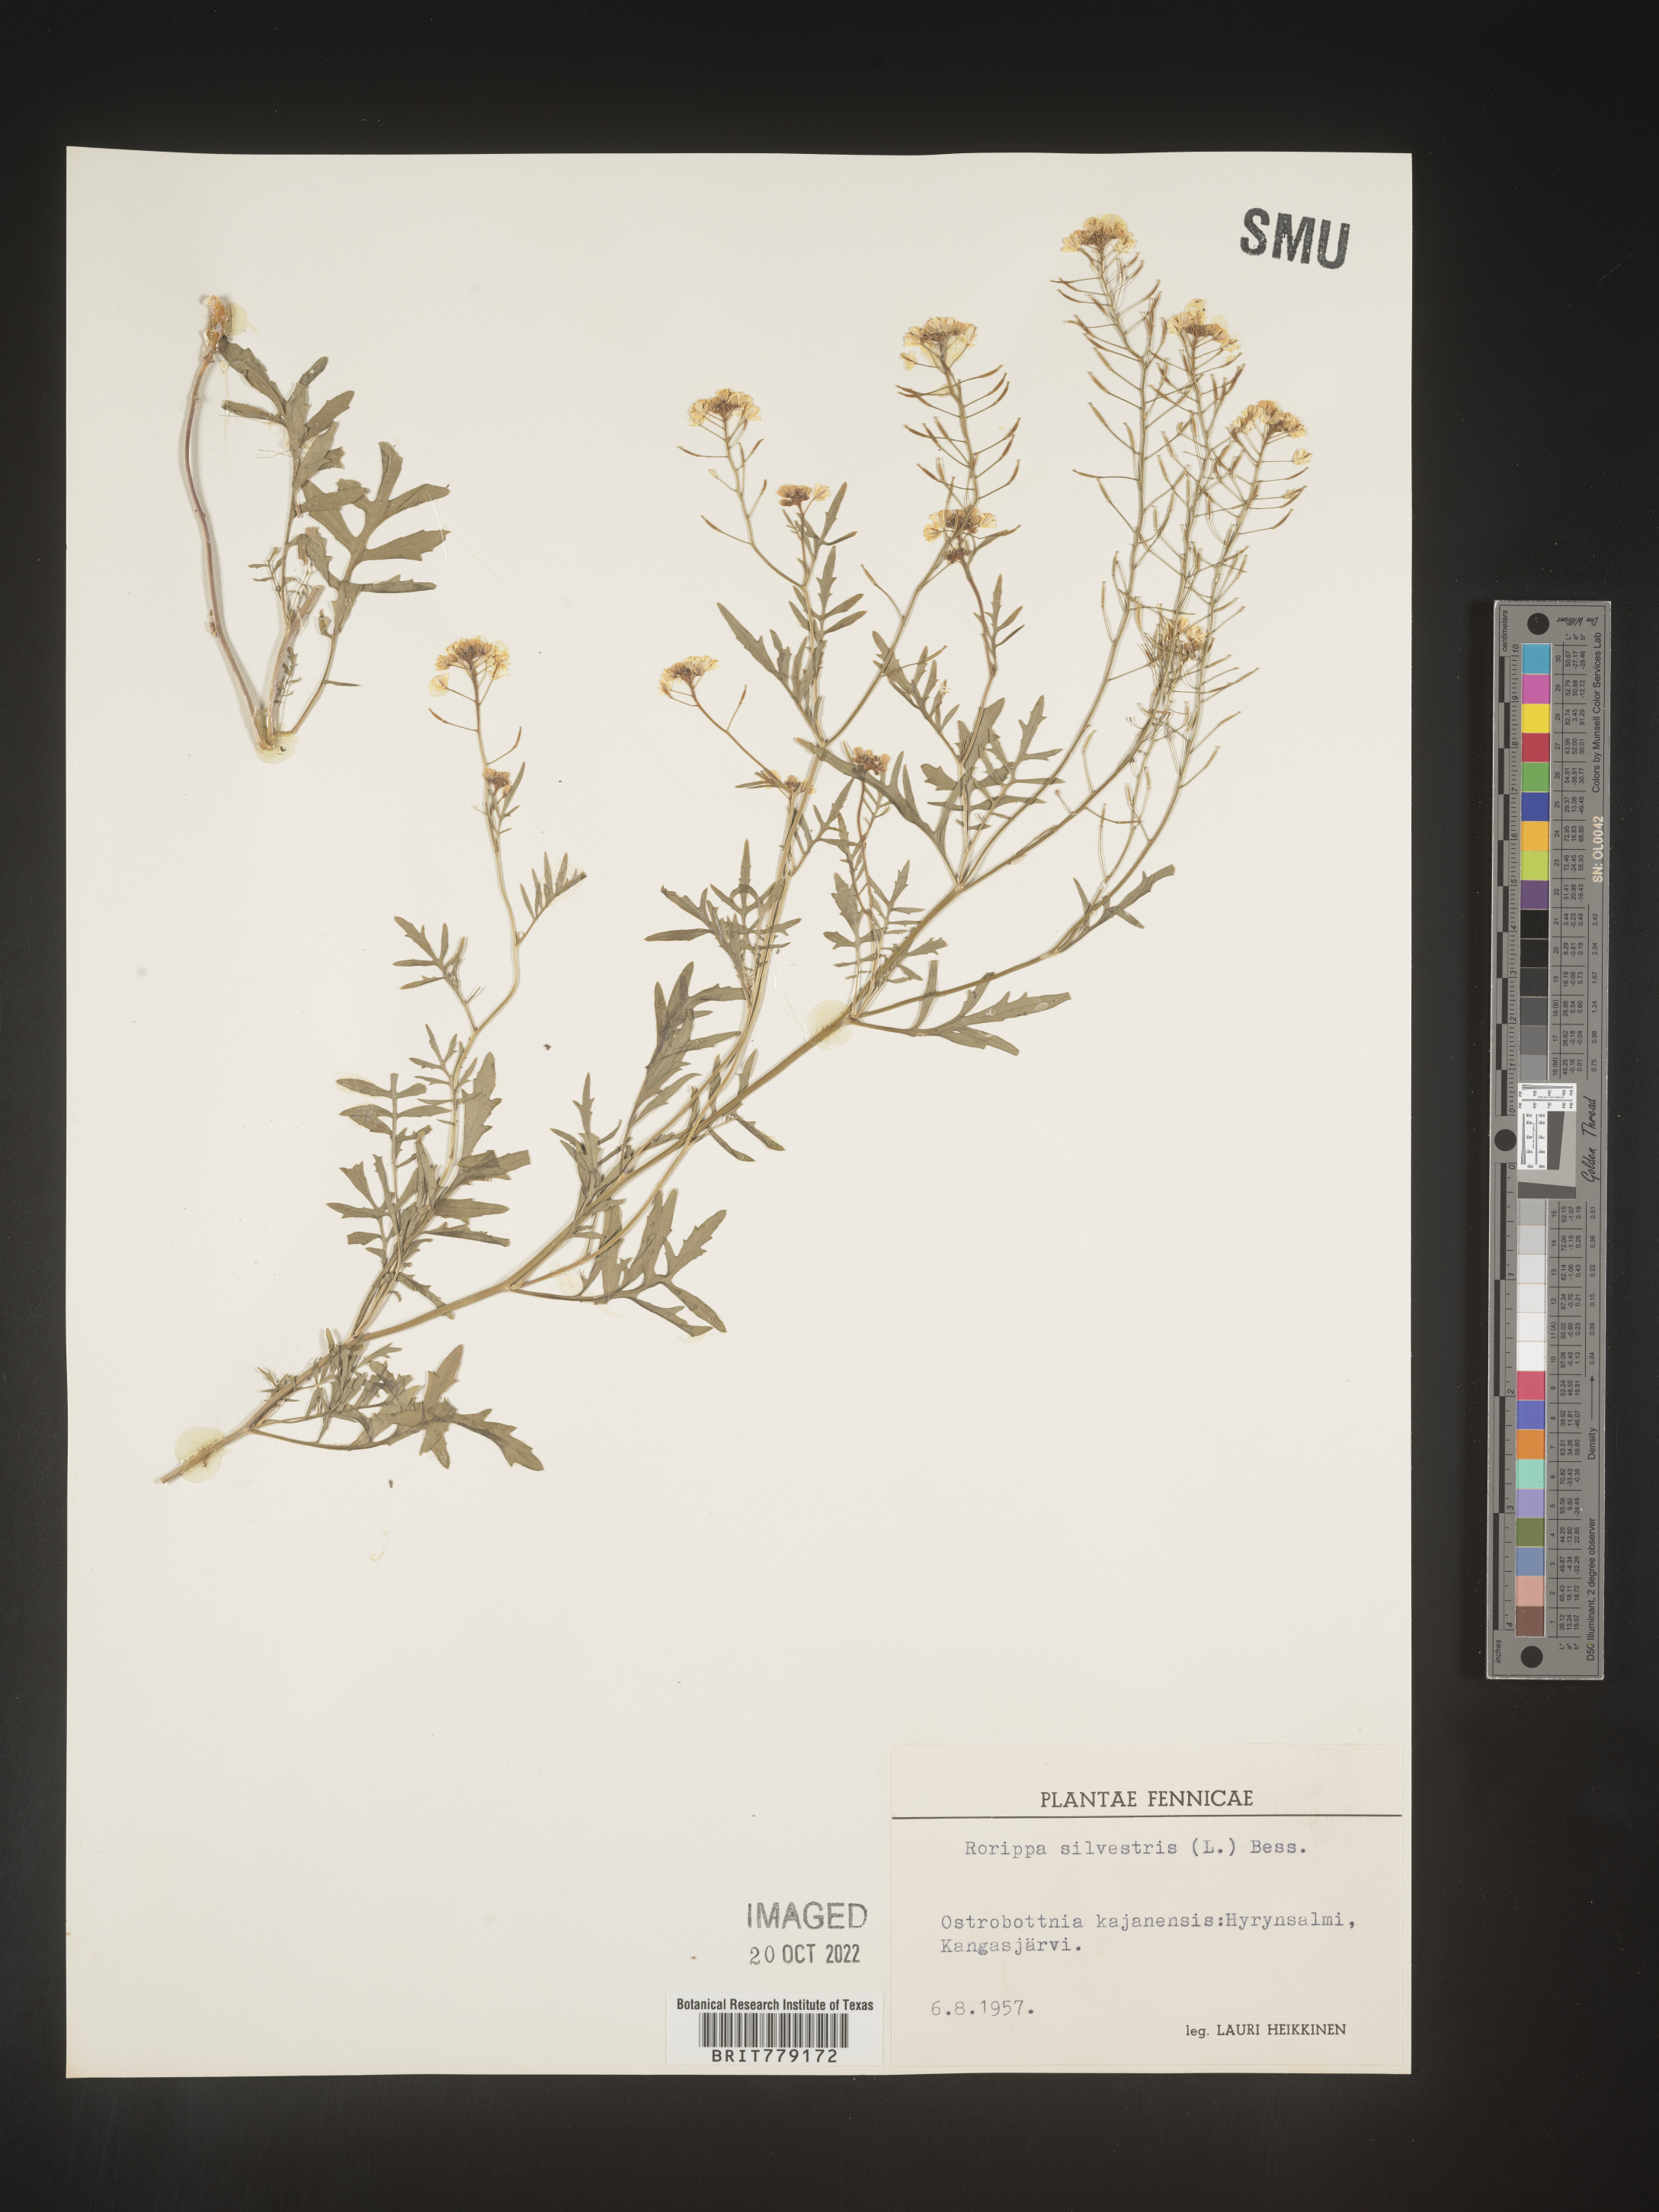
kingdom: Plantae
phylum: Tracheophyta
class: Magnoliopsida
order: Brassicales
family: Brassicaceae
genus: Rorippa
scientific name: Rorippa
